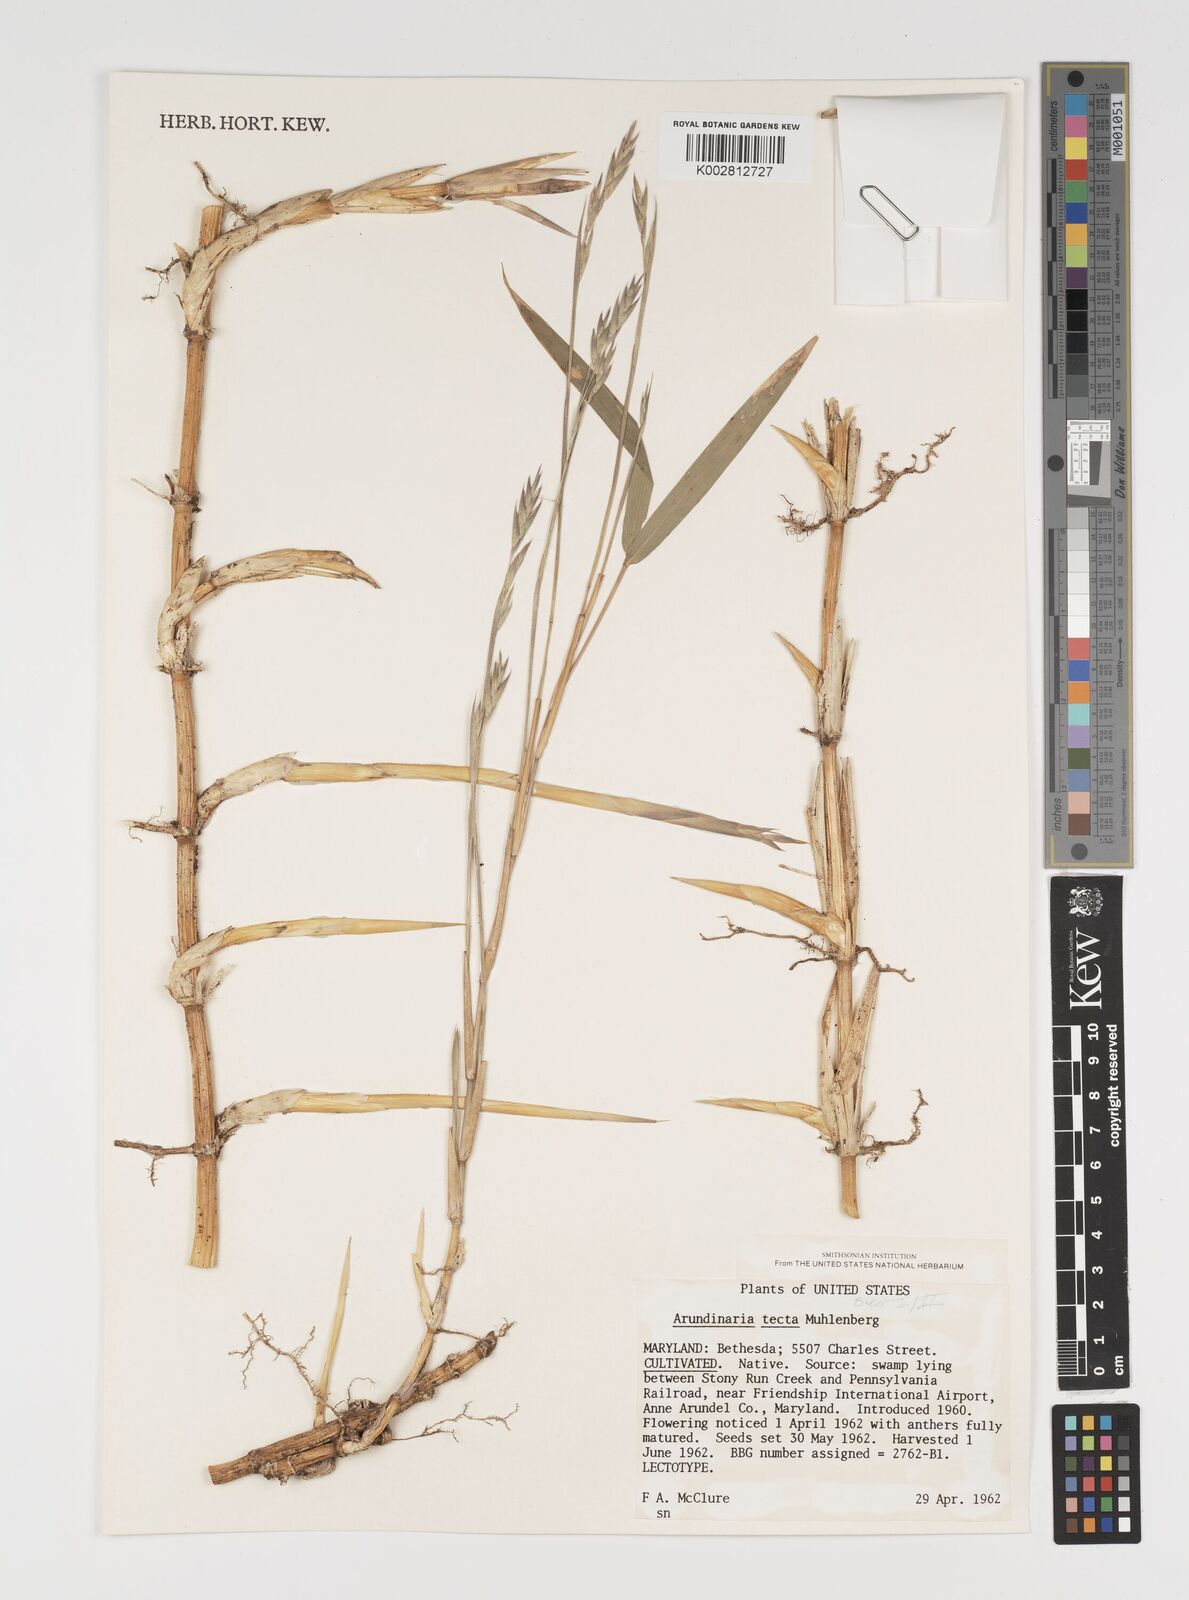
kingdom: Plantae
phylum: Tracheophyta
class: Liliopsida
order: Poales
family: Poaceae
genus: Arundinaria
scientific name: Arundinaria tecta
